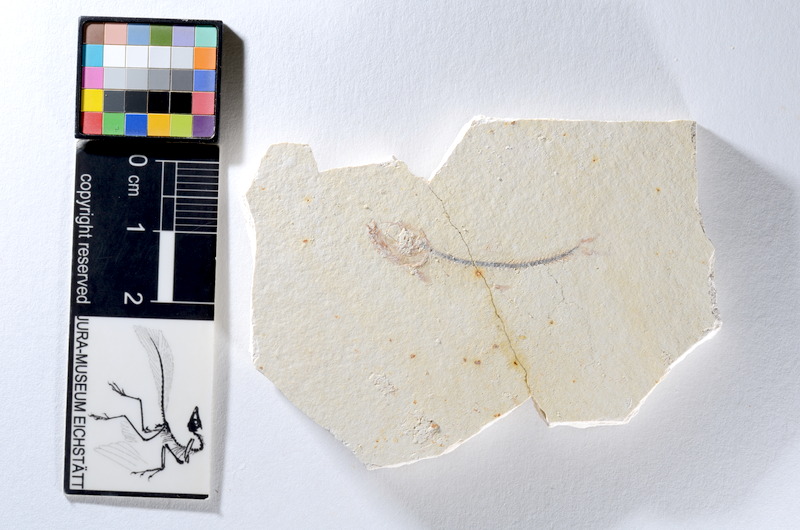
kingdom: Animalia
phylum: Chordata
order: Salmoniformes
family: Orthogonikleithridae
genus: Orthogonikleithrus
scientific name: Orthogonikleithrus hoelli
